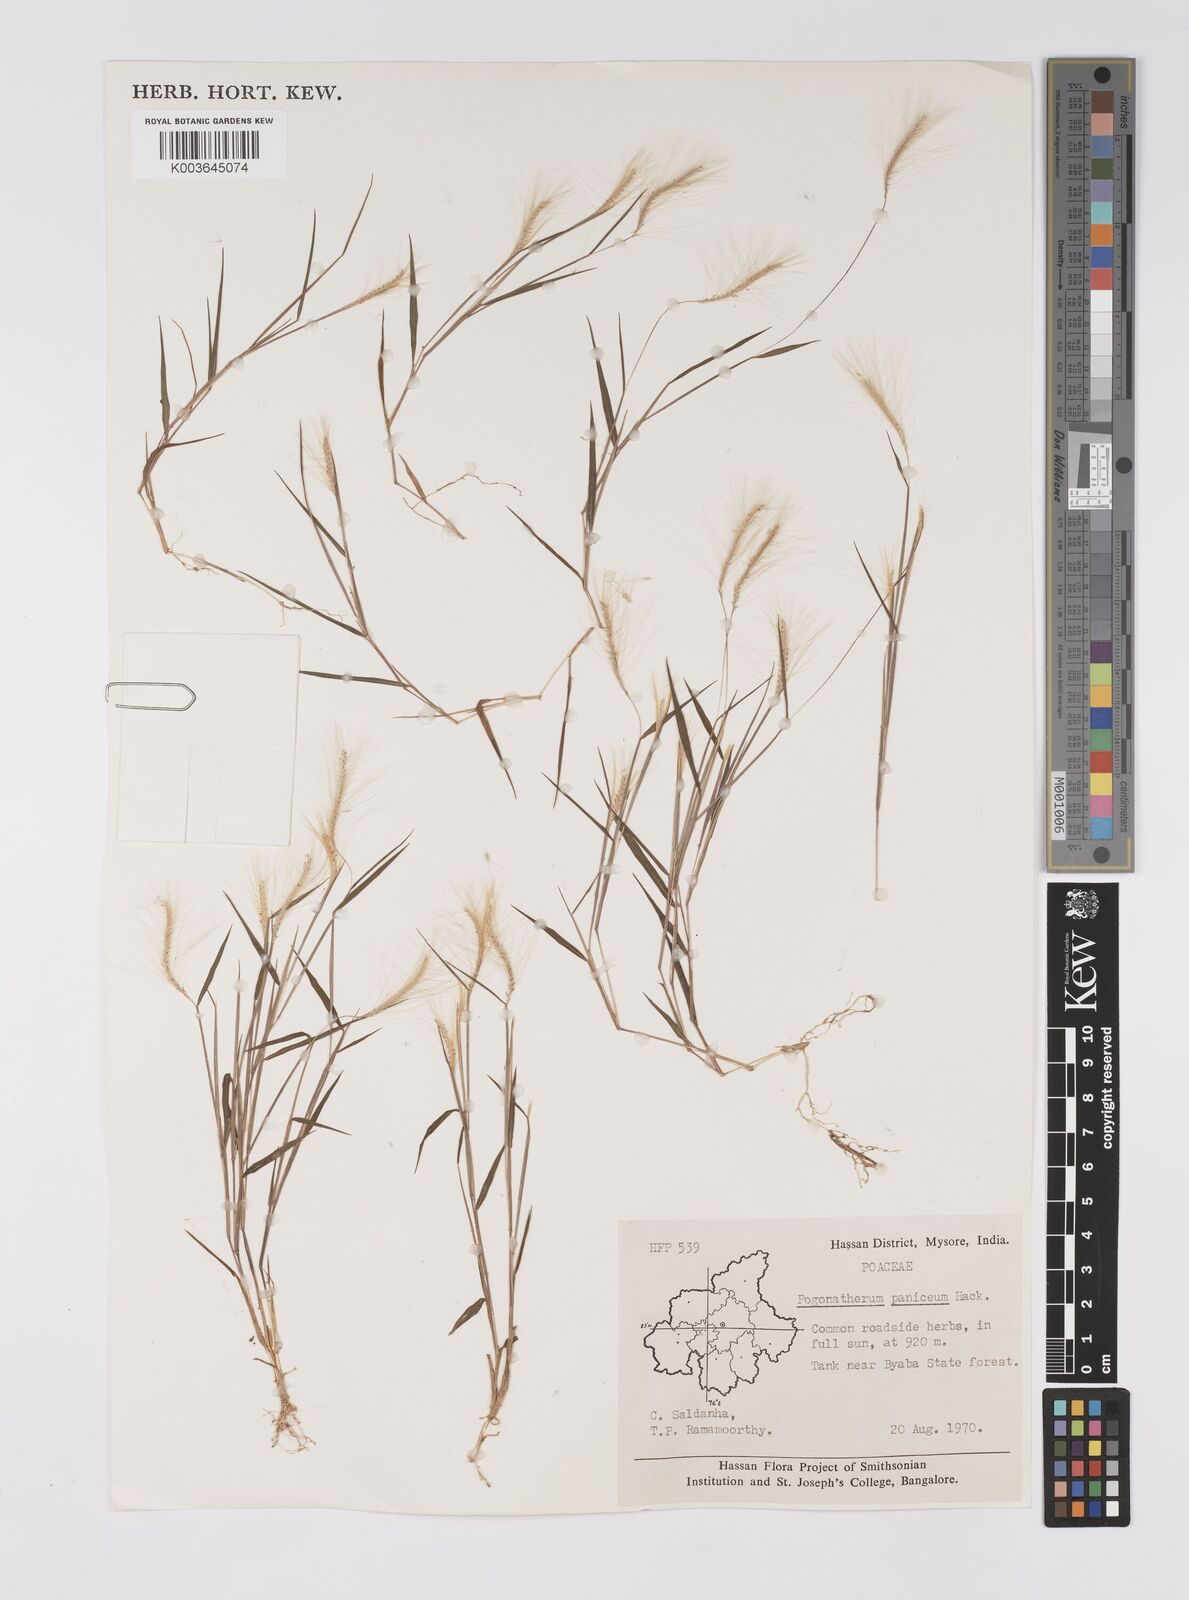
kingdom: Plantae
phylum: Tracheophyta
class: Liliopsida
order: Poales
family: Poaceae
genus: Pogonatherum
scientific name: Pogonatherum crinitum
